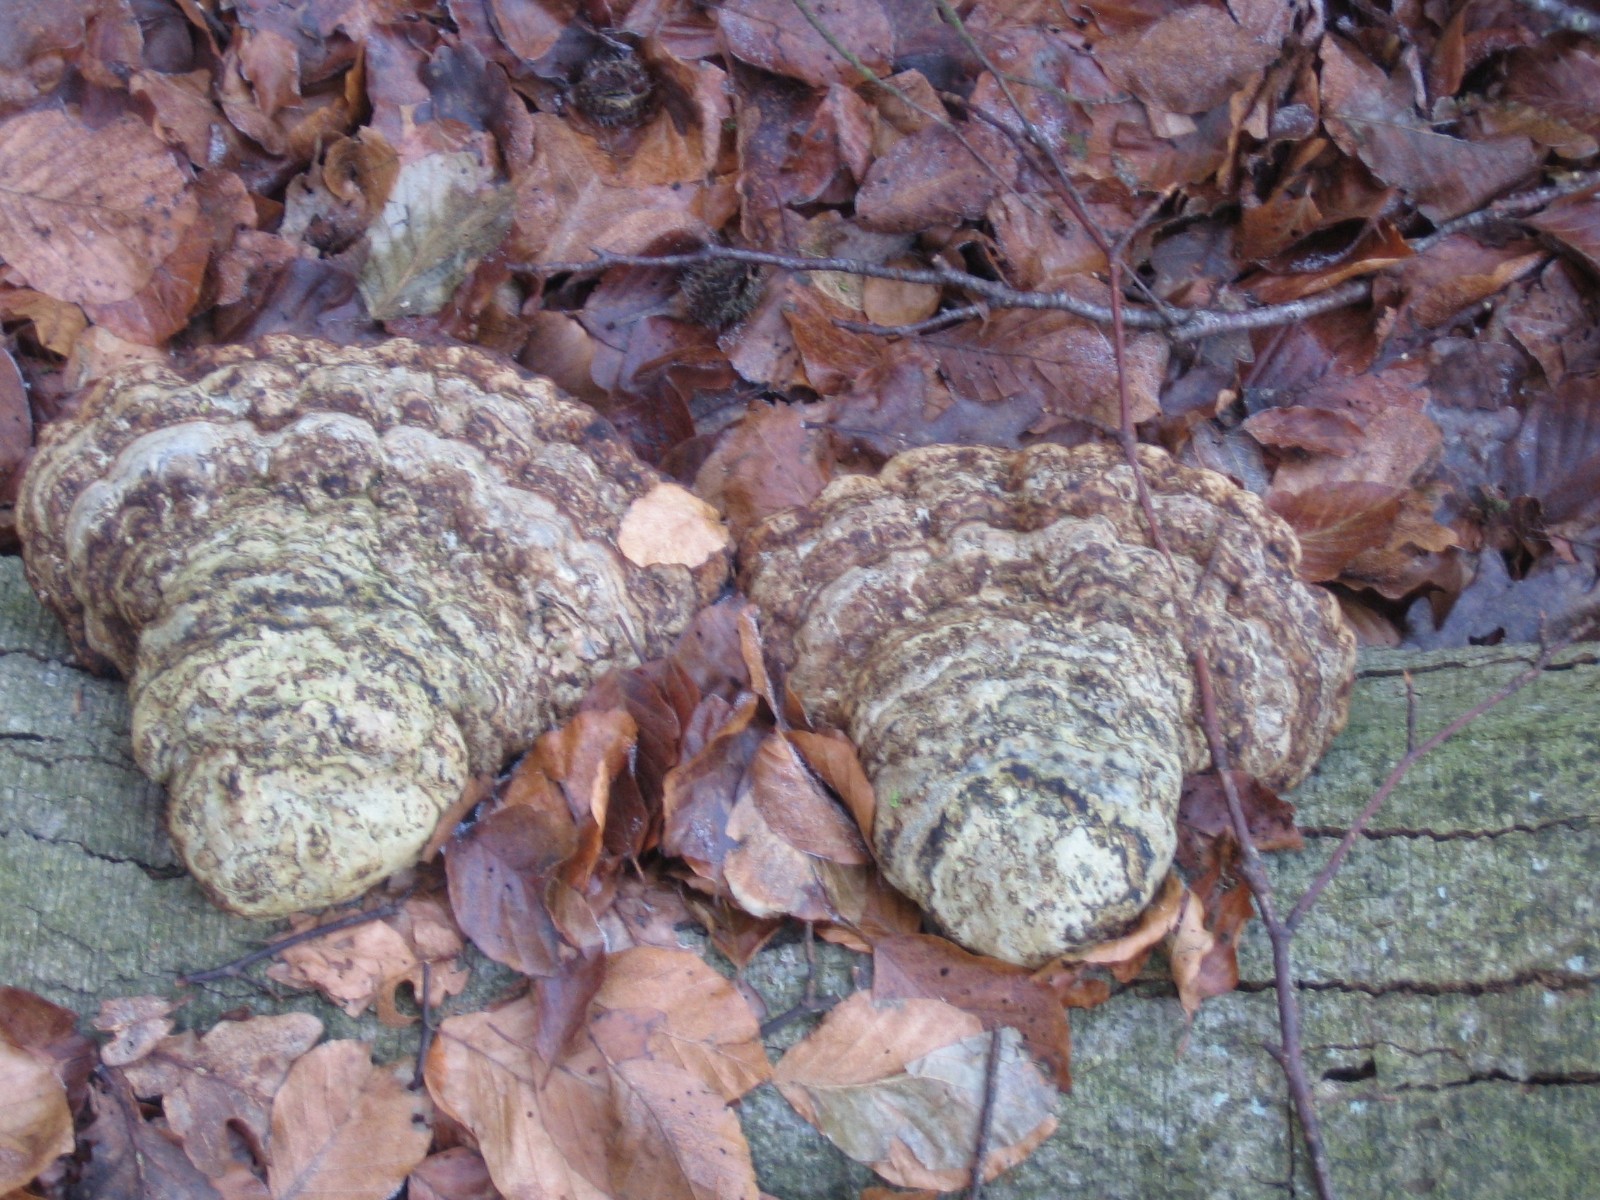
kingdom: Fungi
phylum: Basidiomycota
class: Agaricomycetes
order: Polyporales
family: Polyporaceae
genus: Fomes
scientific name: Fomes fomentarius
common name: tøndersvamp
